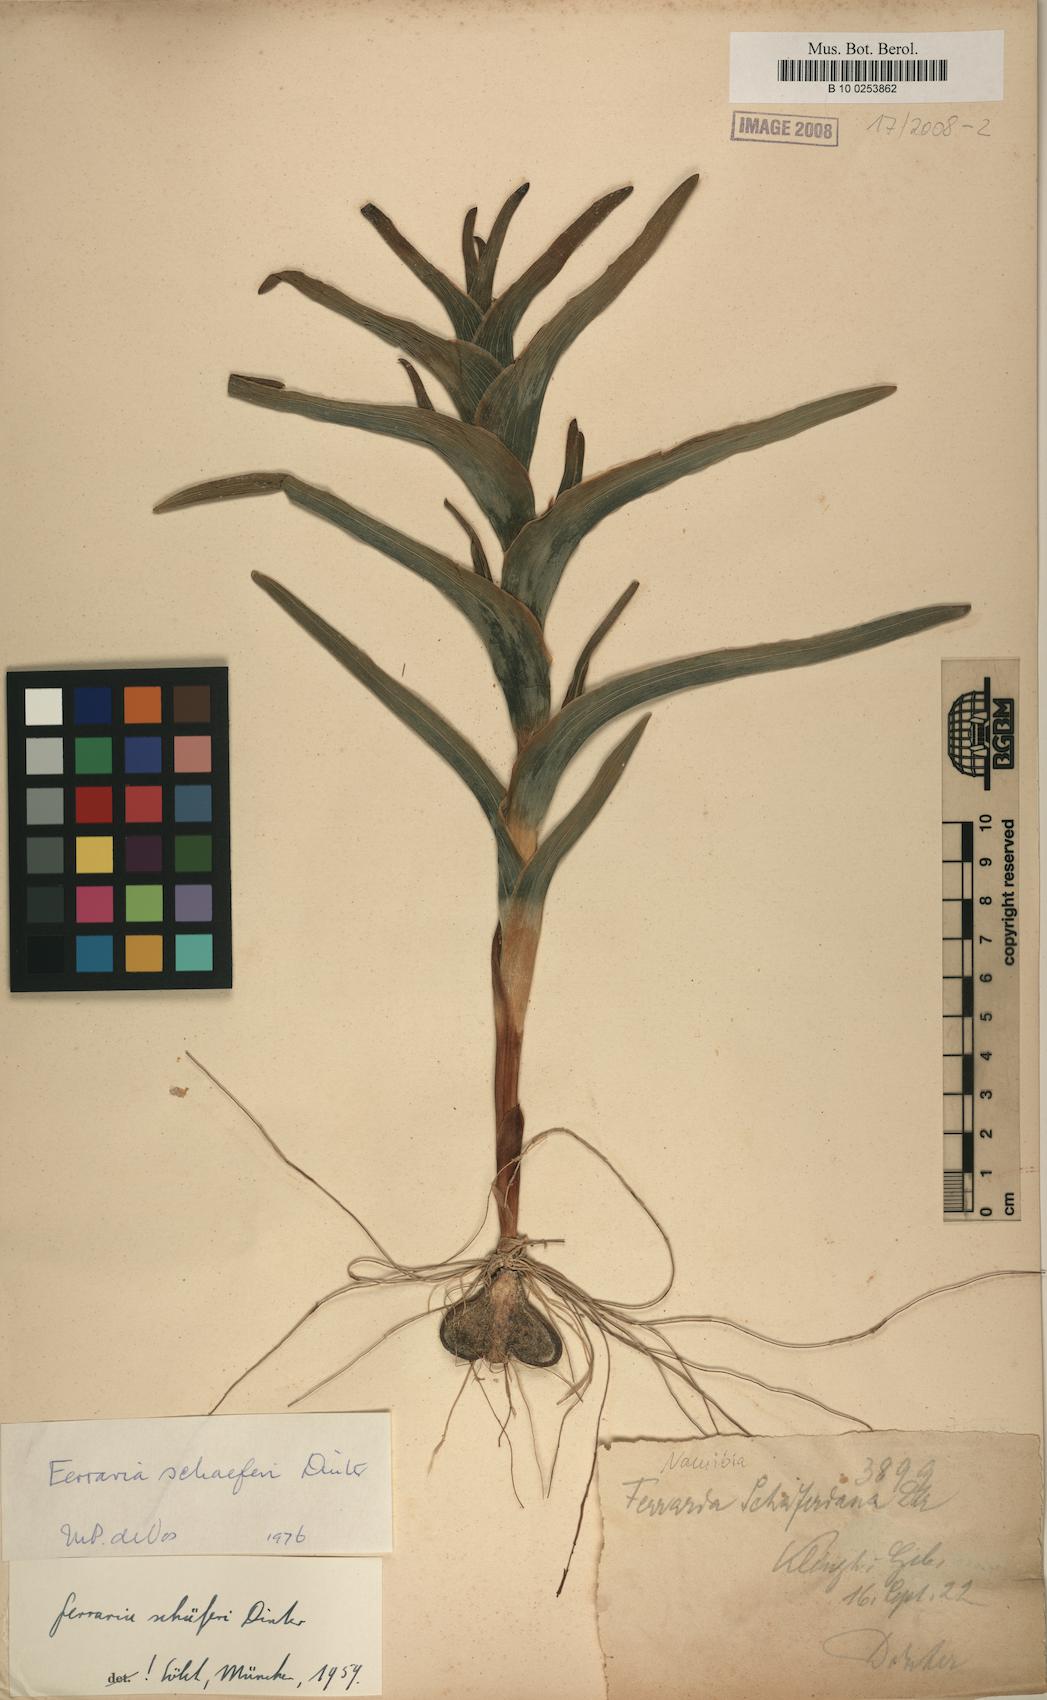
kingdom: Plantae
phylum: Tracheophyta
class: Liliopsida
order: Asparagales
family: Iridaceae
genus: Ferraria
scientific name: Ferraria schaeferi
